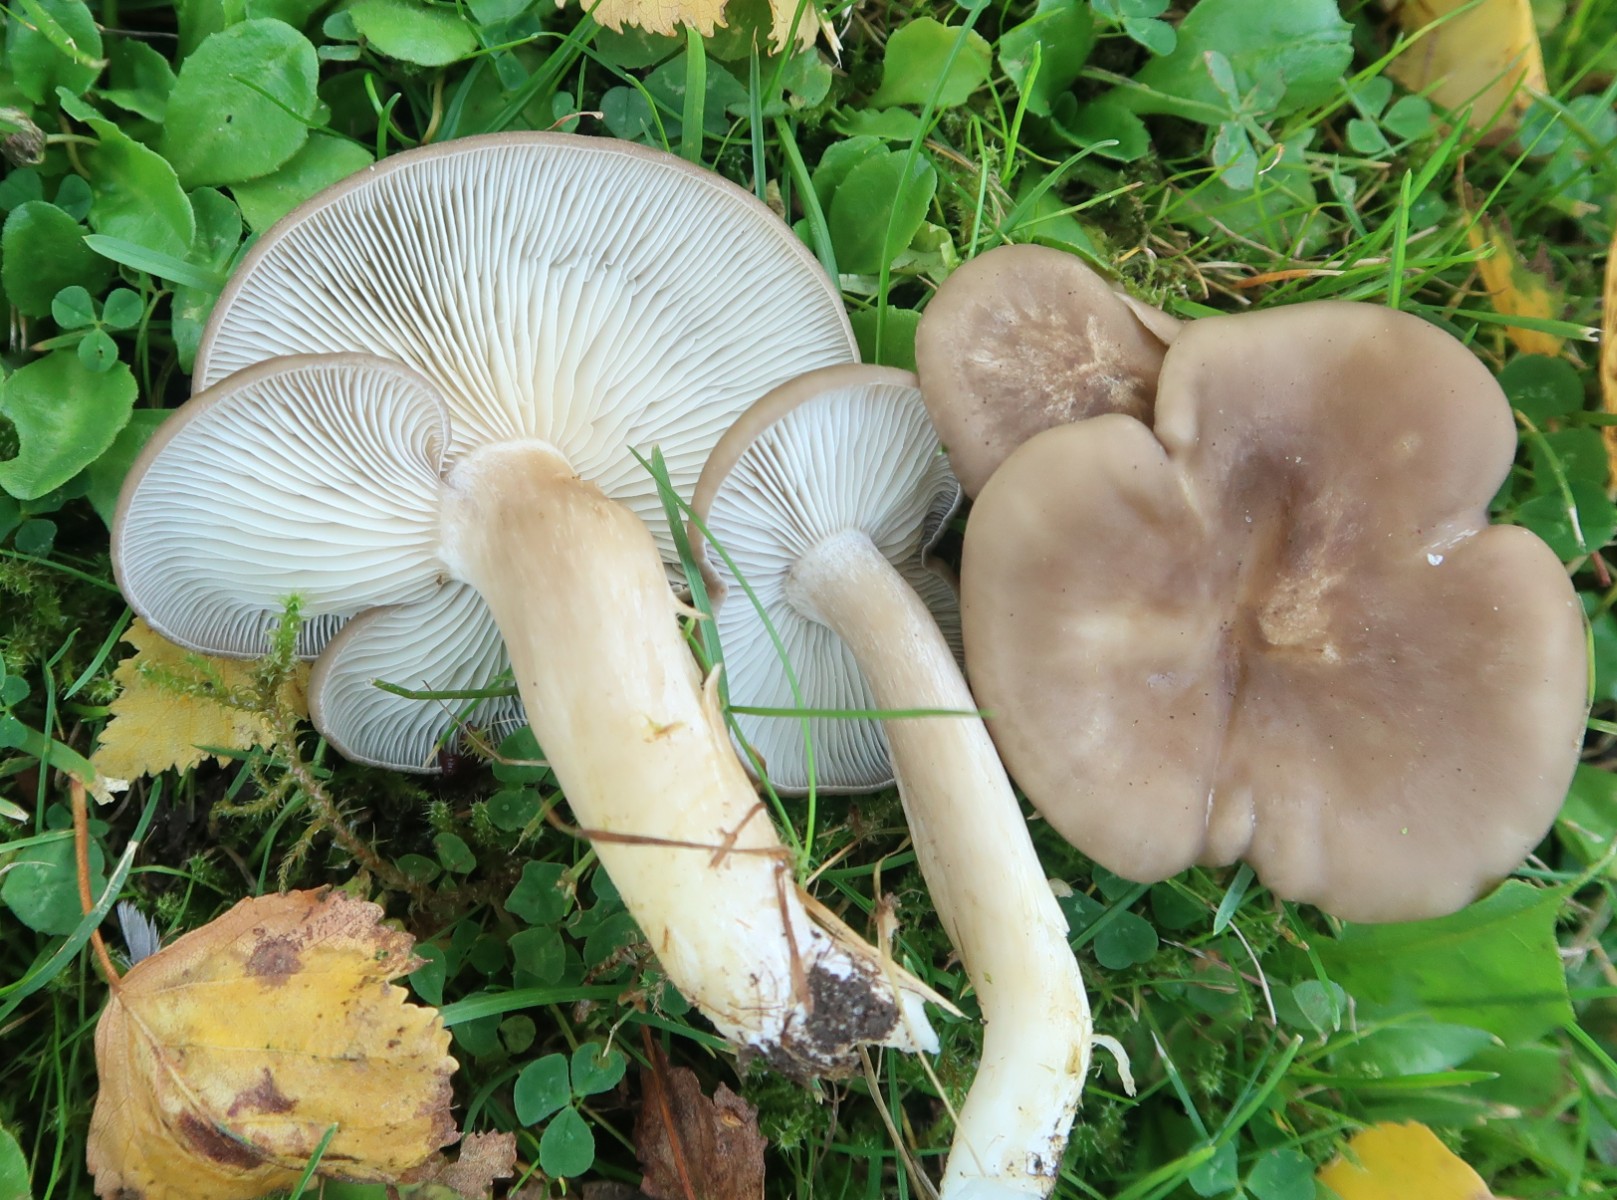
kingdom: Fungi
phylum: Basidiomycota
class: Agaricomycetes
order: Agaricales
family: Lyophyllaceae
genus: Lyophyllum
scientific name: Lyophyllum decastes
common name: røggrå gråblad
